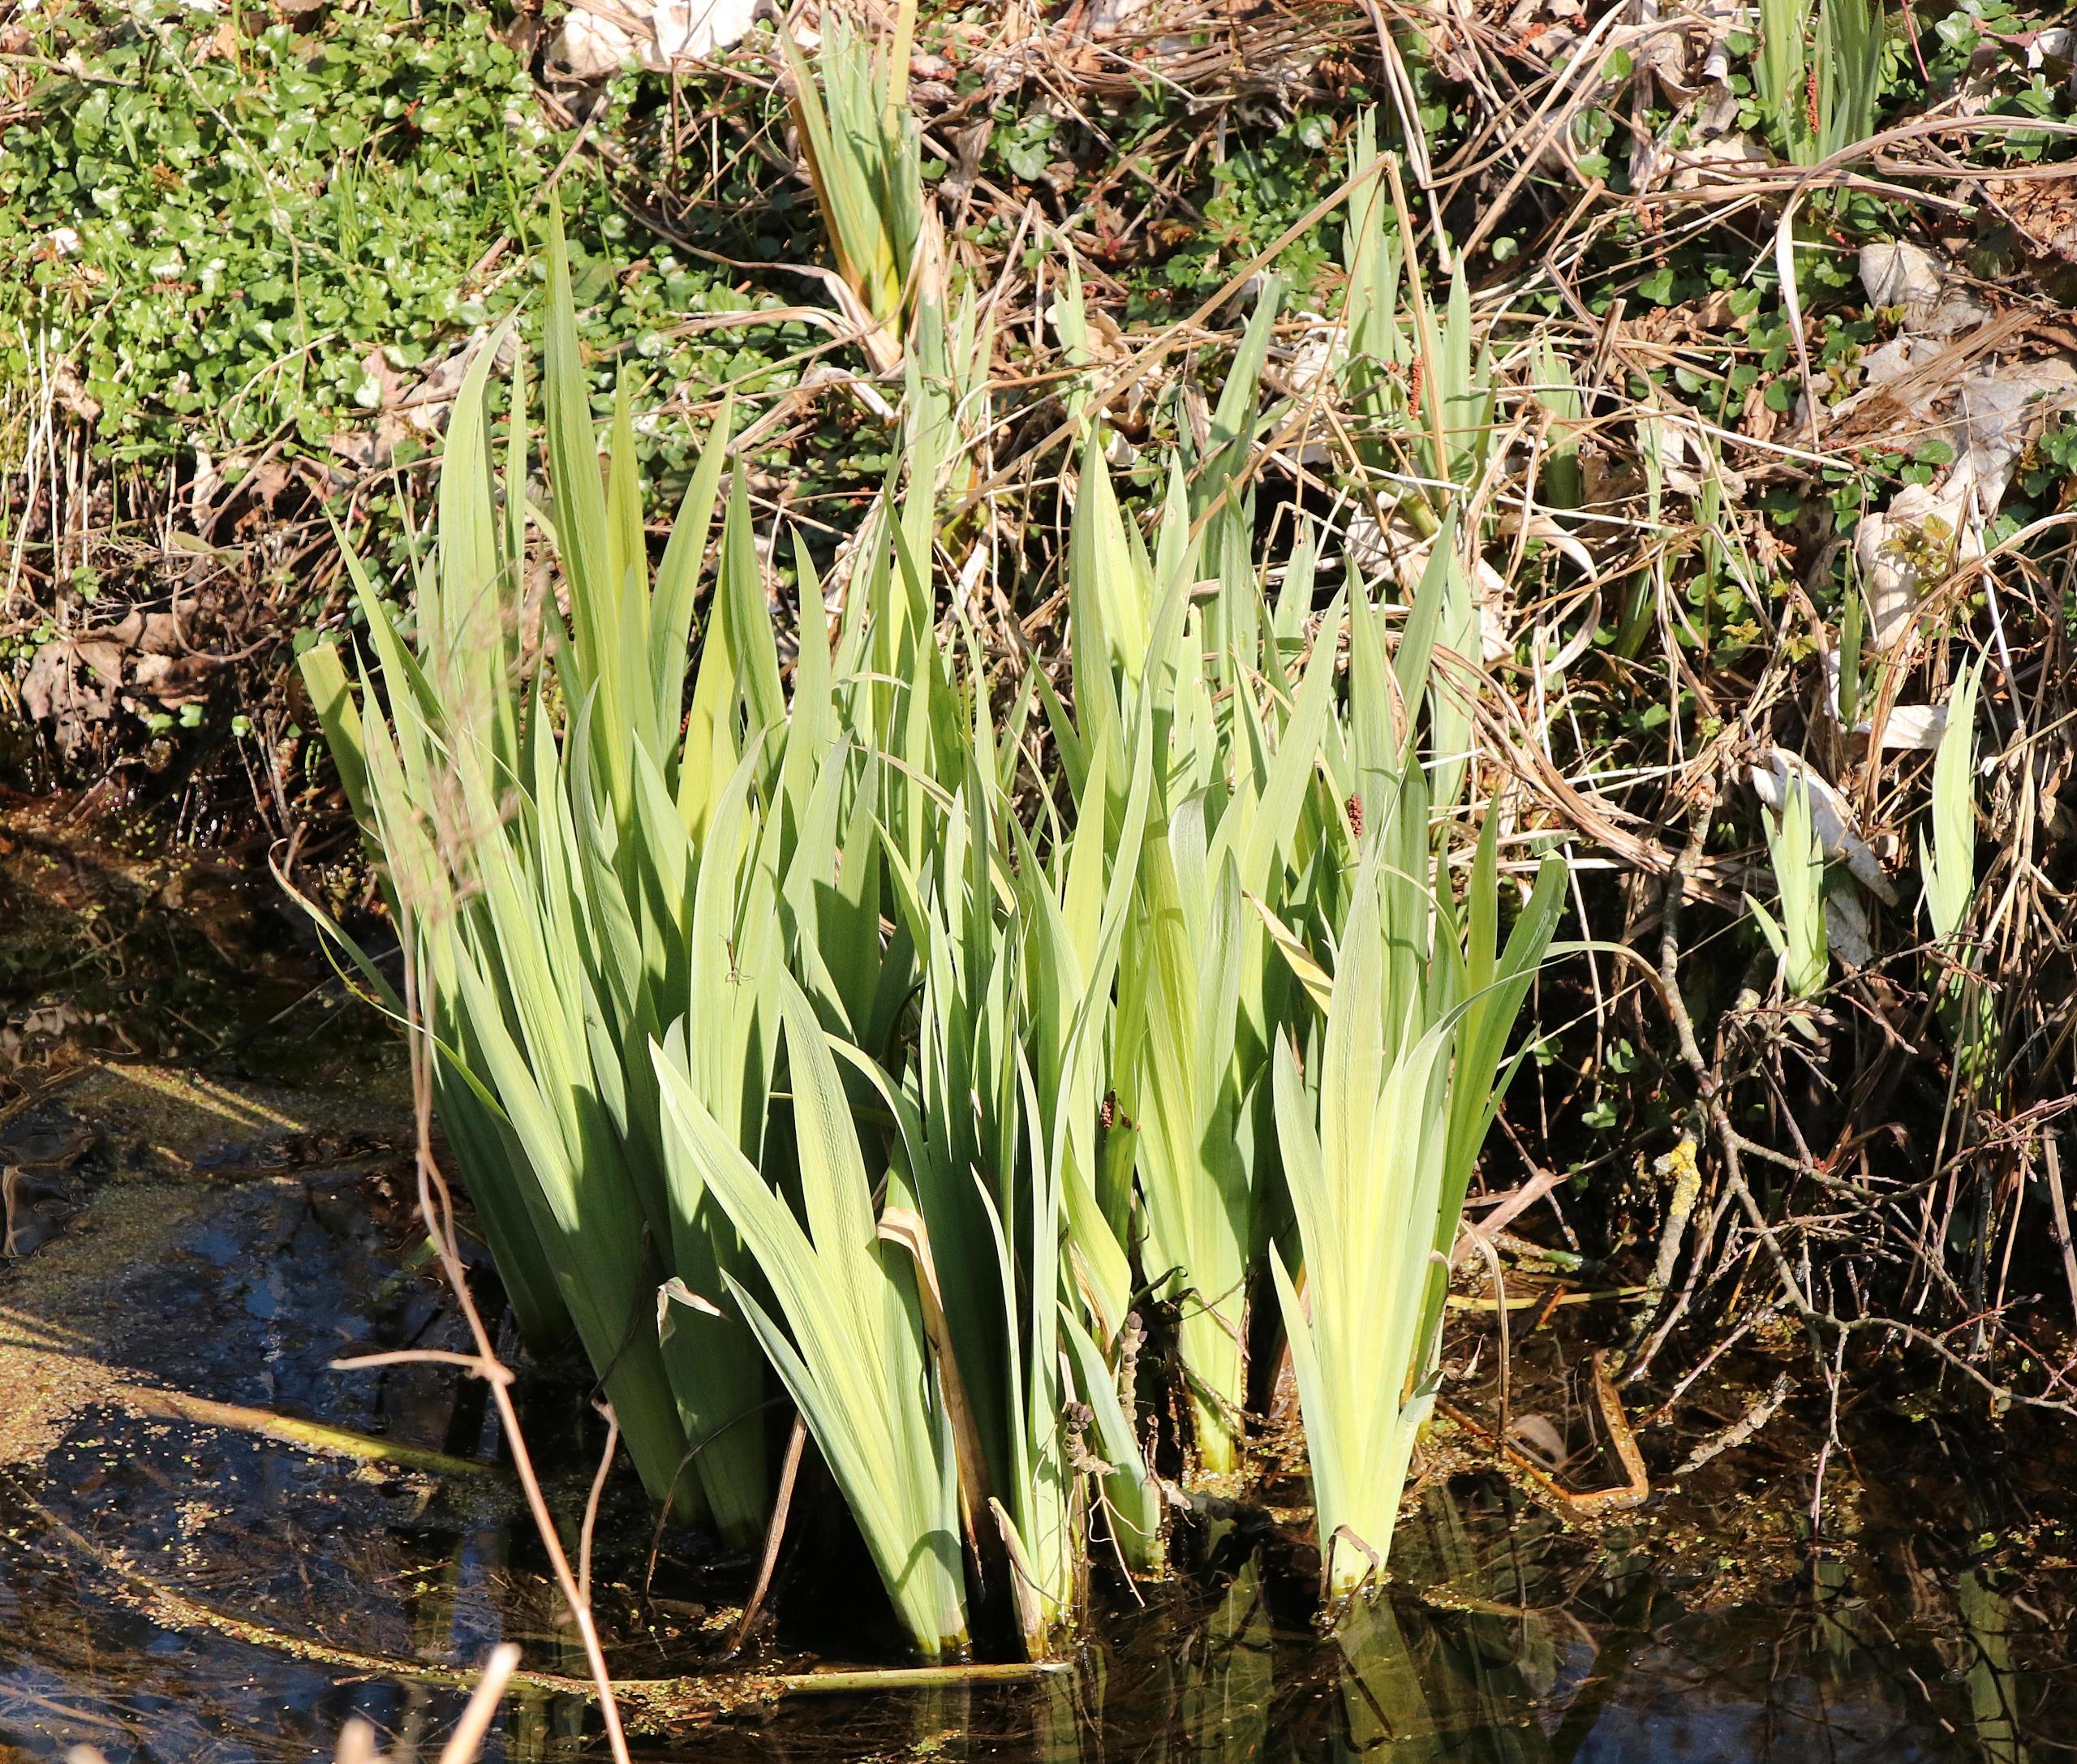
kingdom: Plantae
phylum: Tracheophyta
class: Liliopsida
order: Asparagales
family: Iridaceae
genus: Iris
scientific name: Iris pseudacorus
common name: Gul iris
